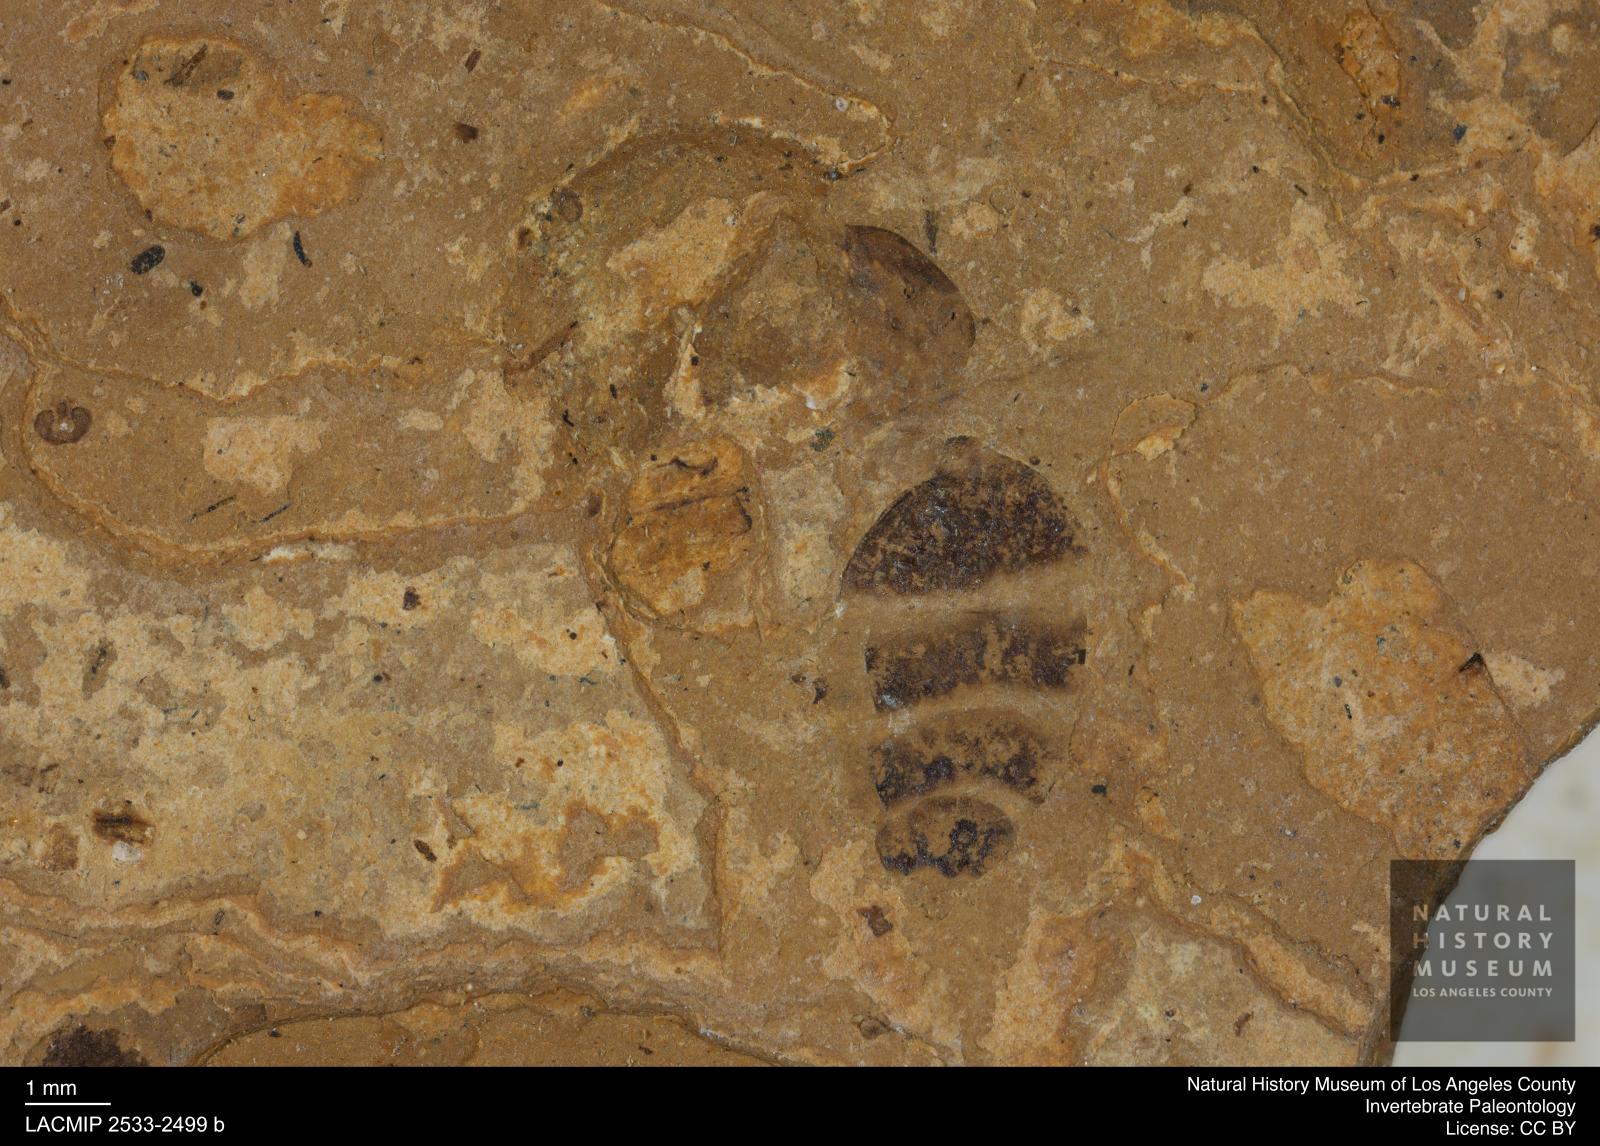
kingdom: Animalia
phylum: Arthropoda
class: Insecta
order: Hymenoptera
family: Formicidae
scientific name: Formicidae
